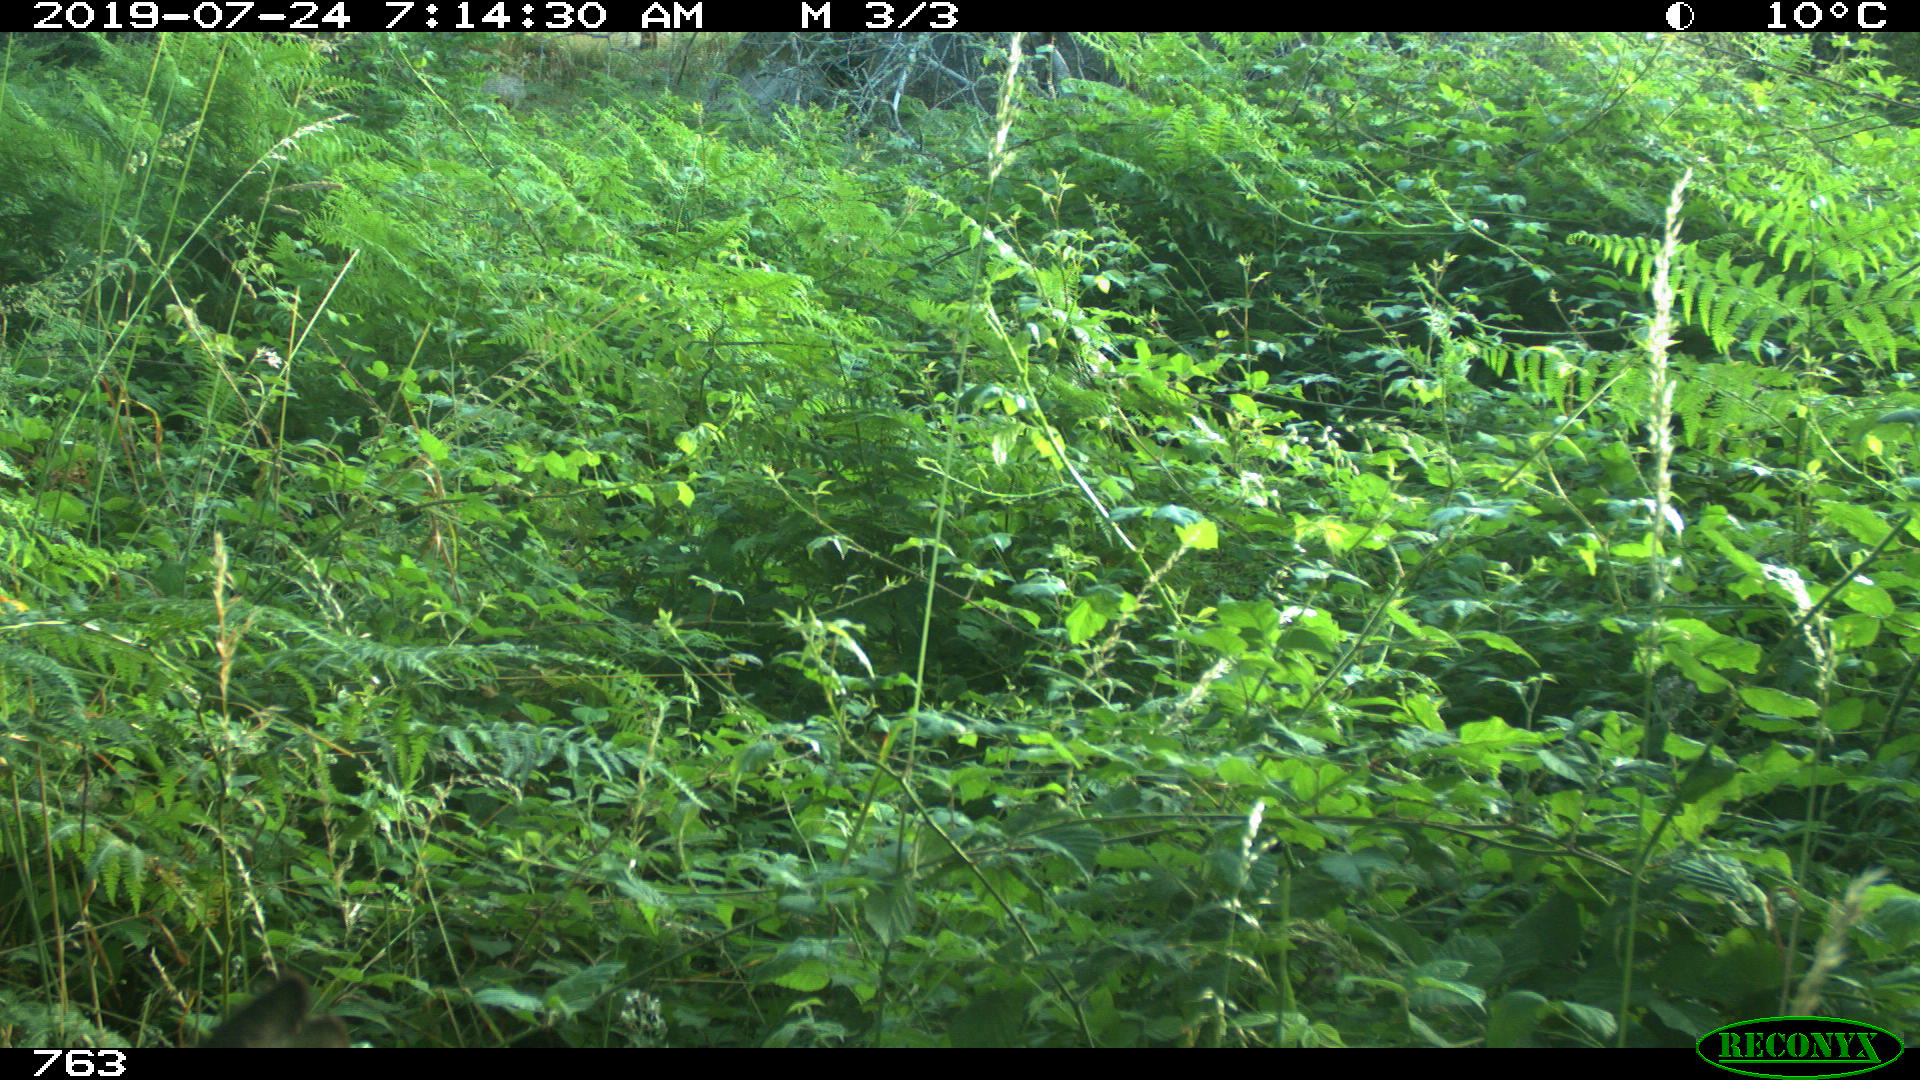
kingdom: Animalia
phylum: Chordata
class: Mammalia
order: Artiodactyla
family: Cervidae
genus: Capreolus
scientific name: Capreolus capreolus
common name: Western roe deer
